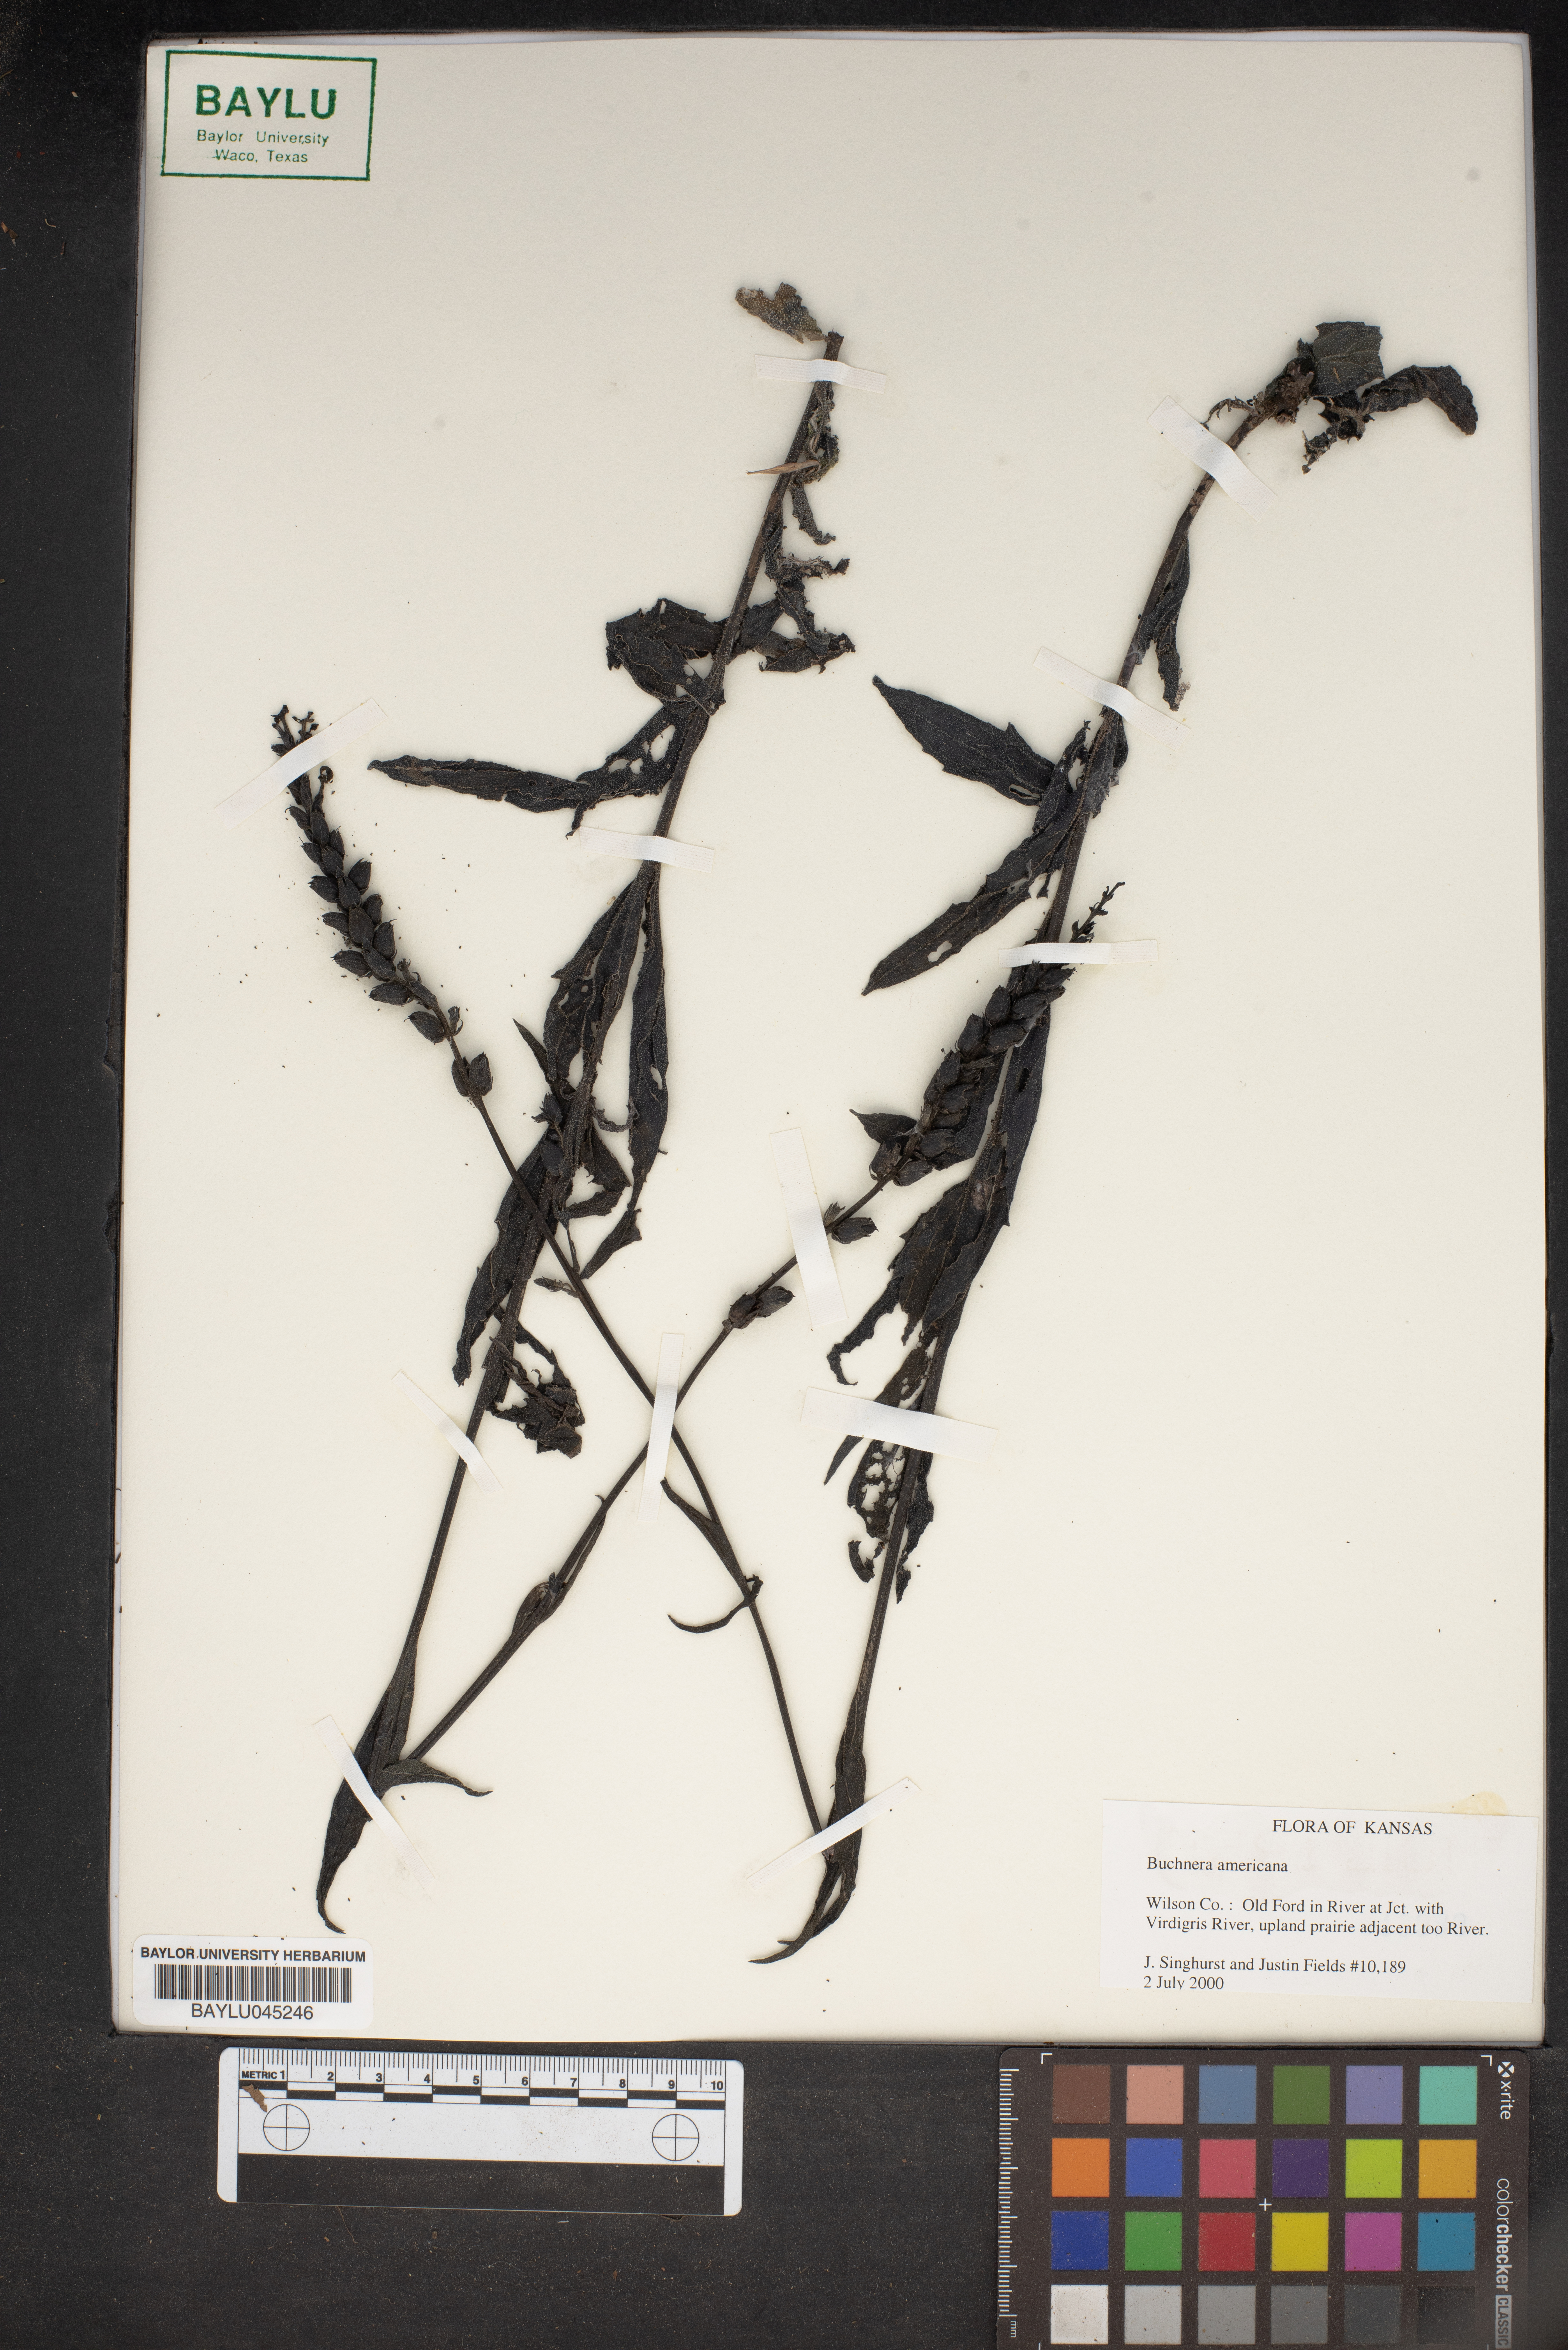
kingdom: Plantae
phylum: Tracheophyta
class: Magnoliopsida
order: Lamiales
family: Orobanchaceae
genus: Buchnera
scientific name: Buchnera americana
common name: American bluehearts
